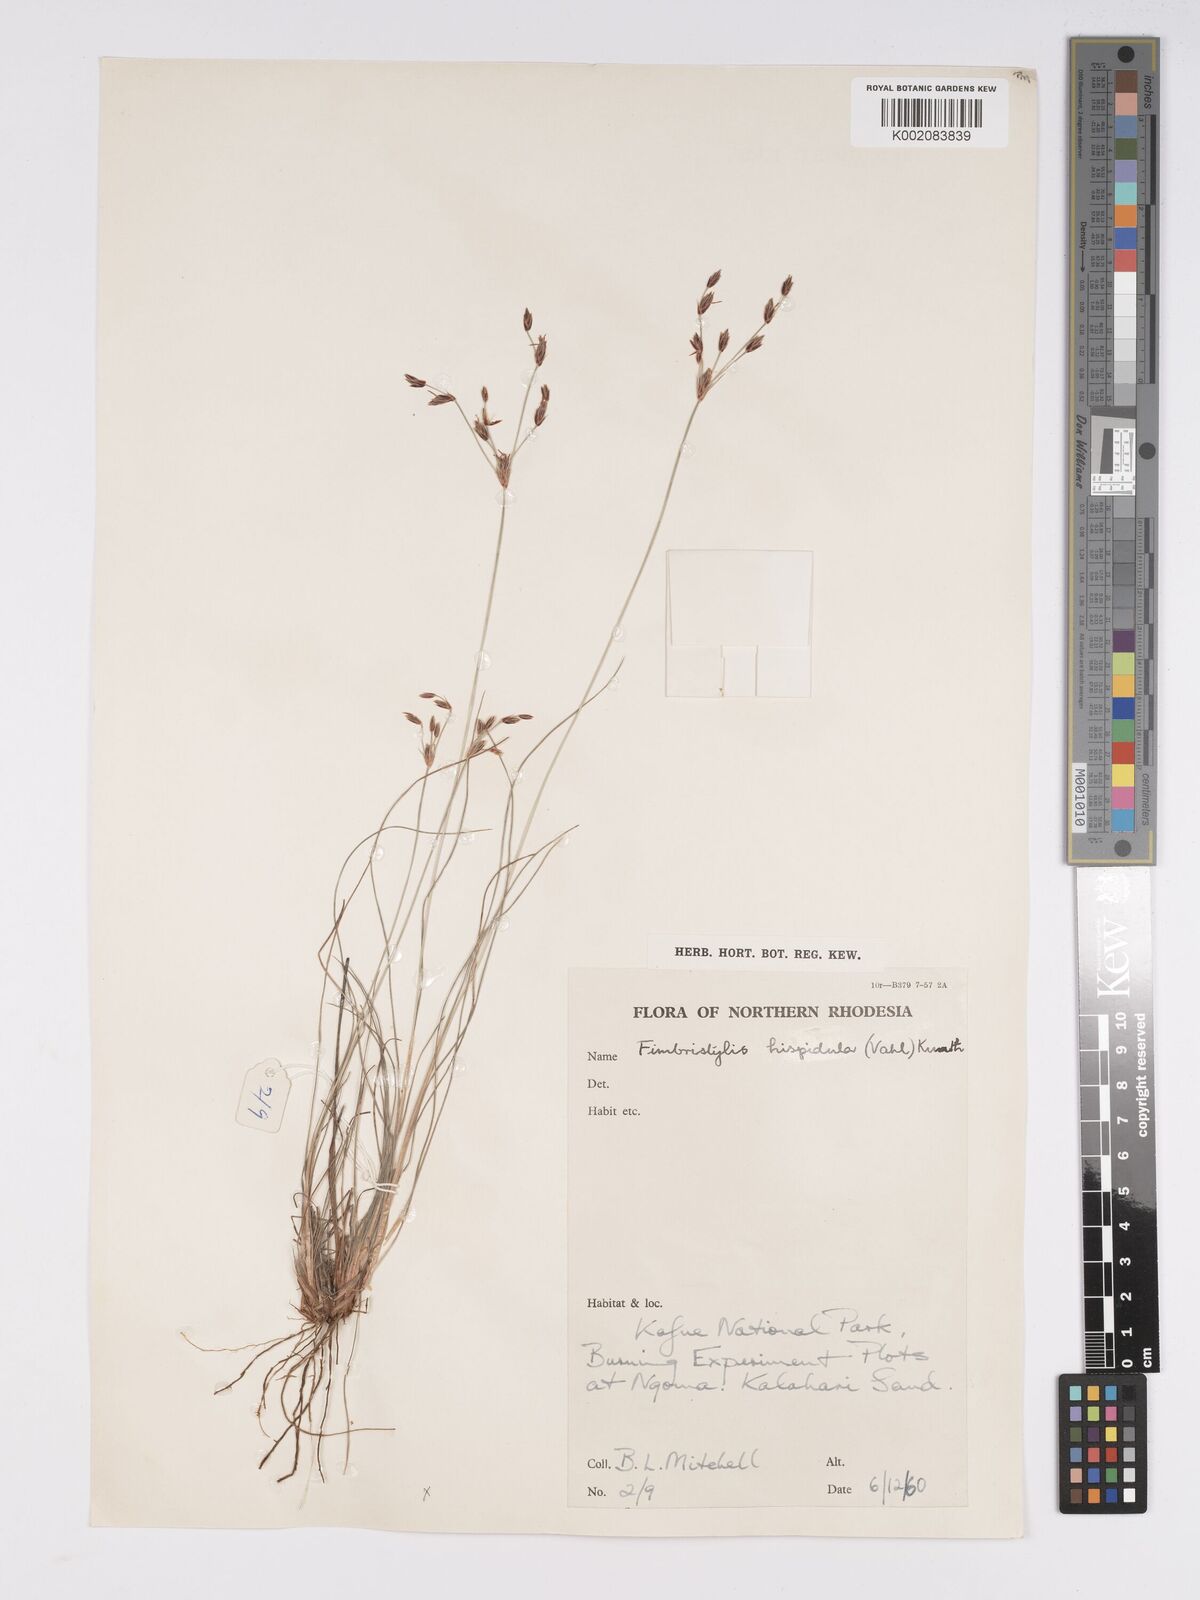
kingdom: Plantae
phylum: Tracheophyta
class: Liliopsida
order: Poales
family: Cyperaceae
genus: Bulbostylis
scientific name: Bulbostylis hispidula
